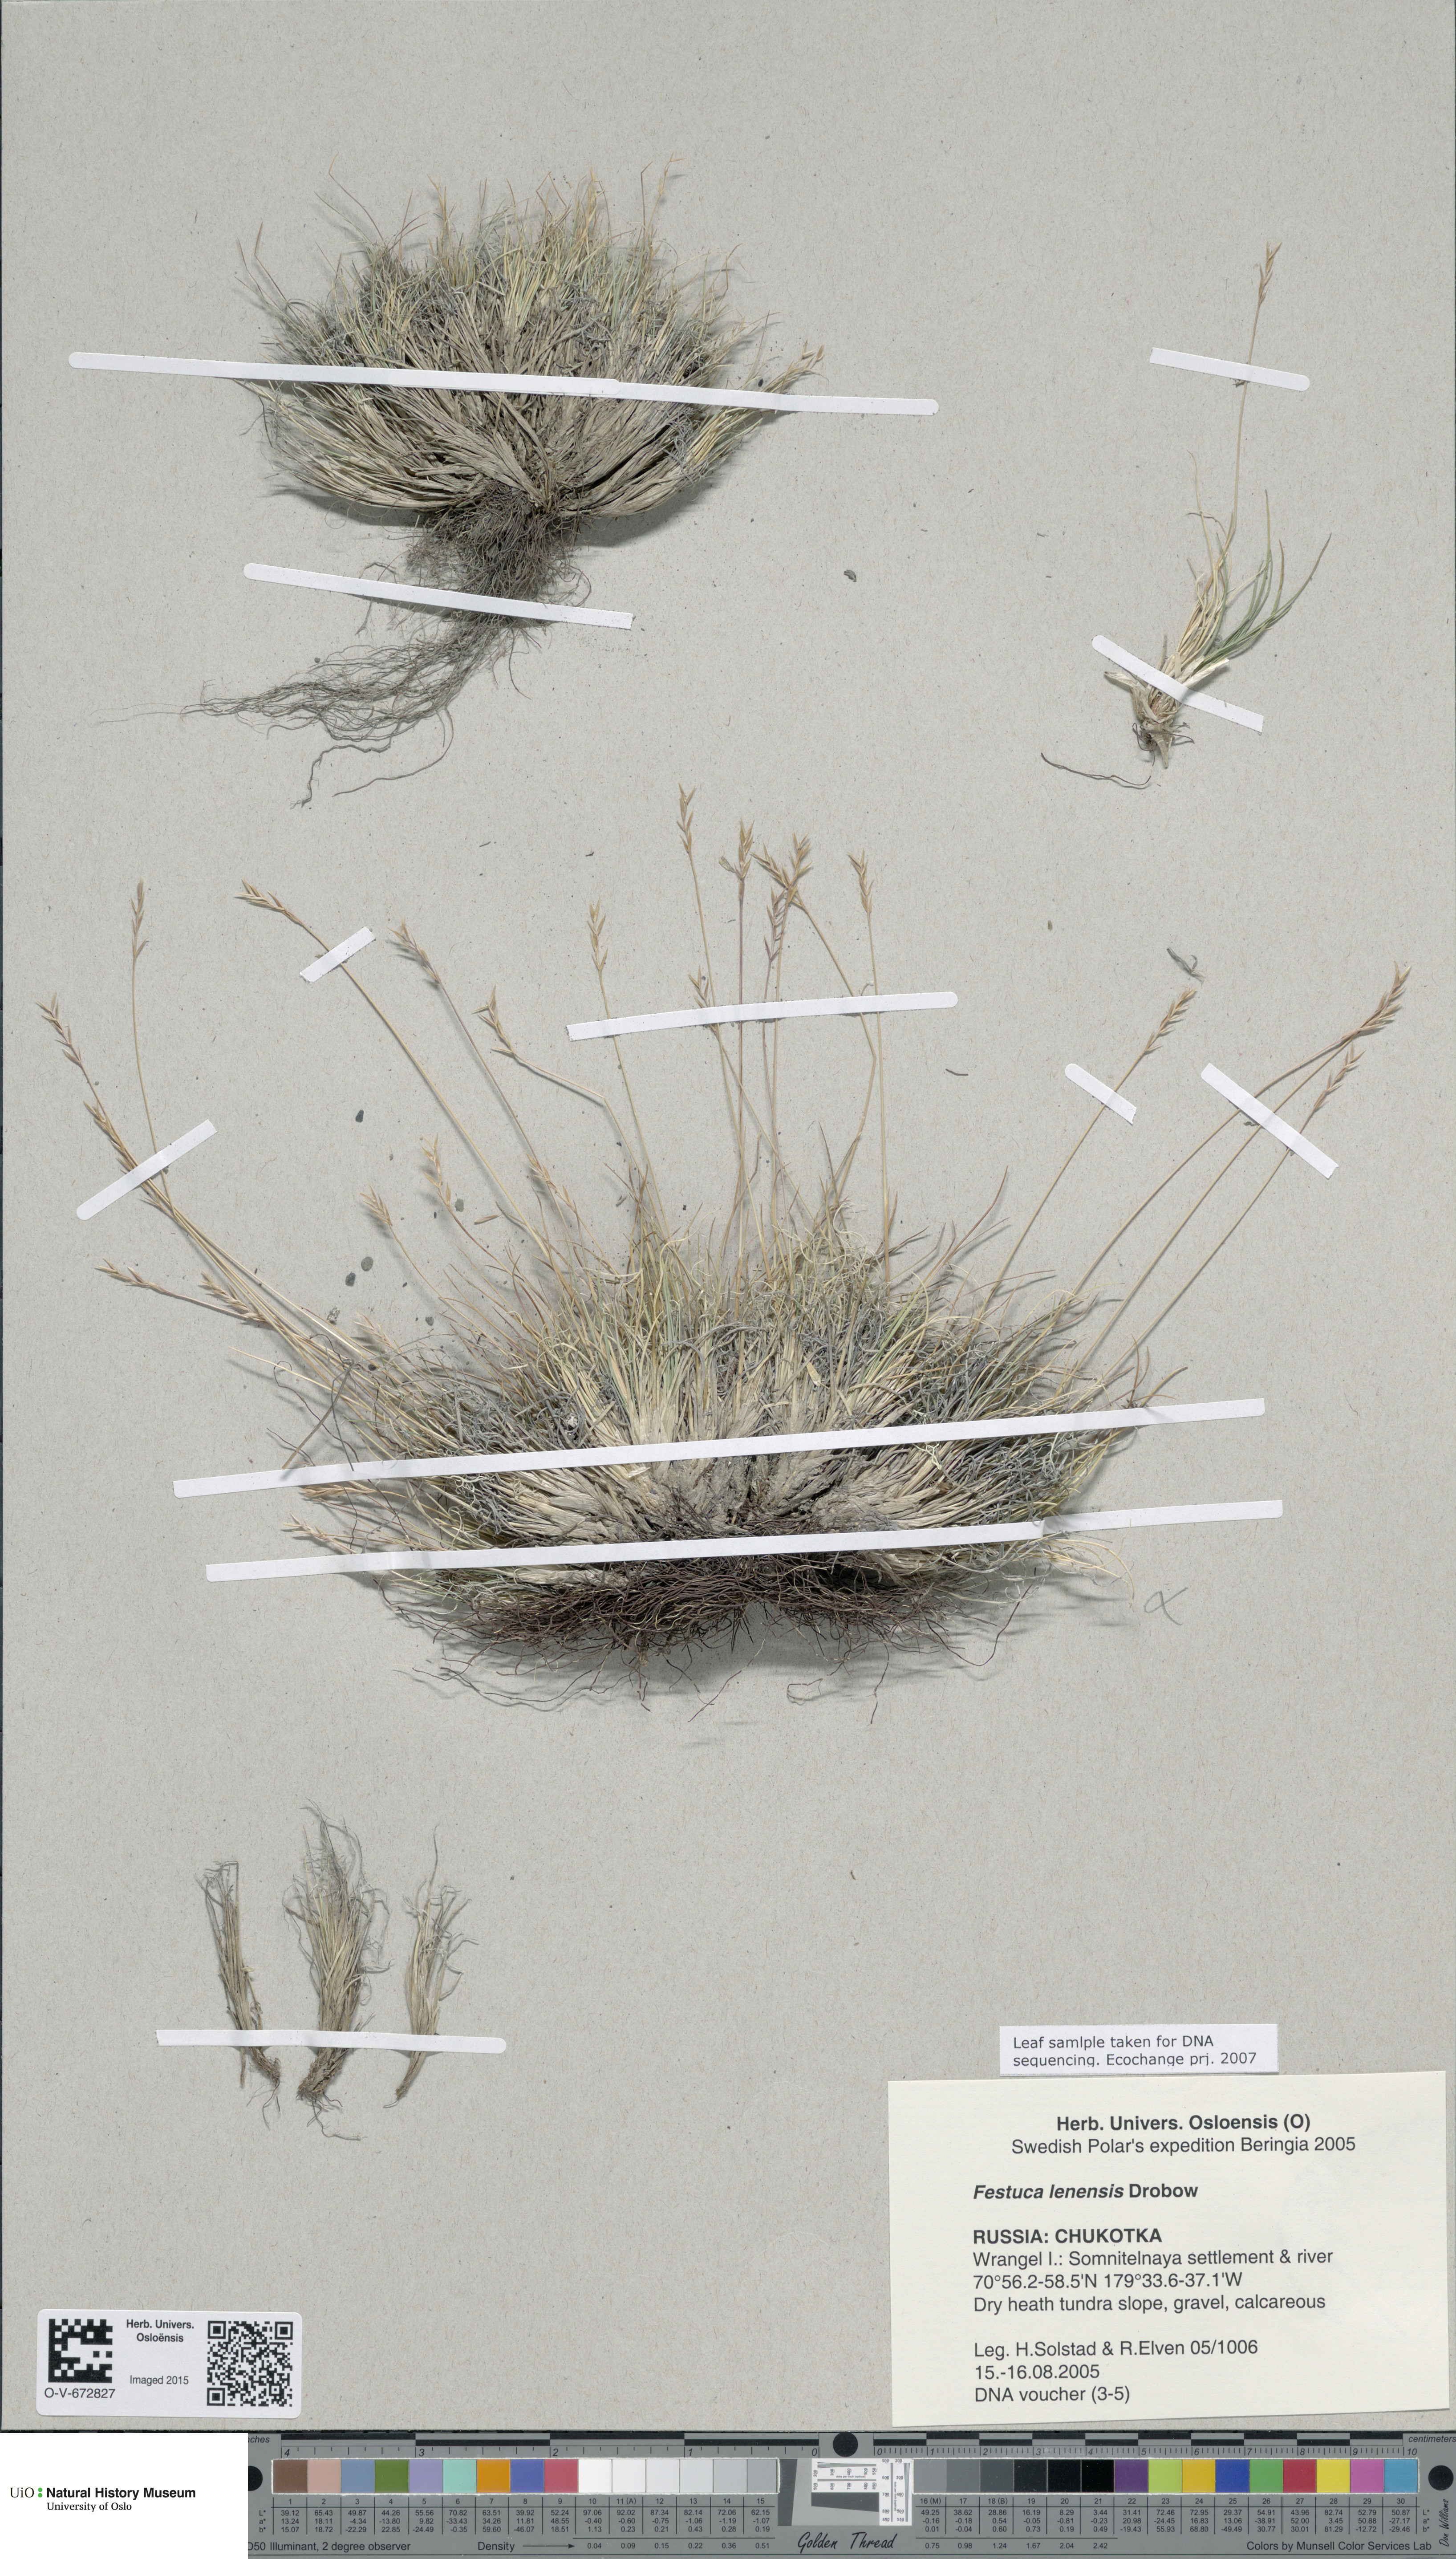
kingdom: Plantae
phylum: Tracheophyta
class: Liliopsida
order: Poales
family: Poaceae
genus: Festuca
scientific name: Festuca lenensis
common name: Lena river fescue
